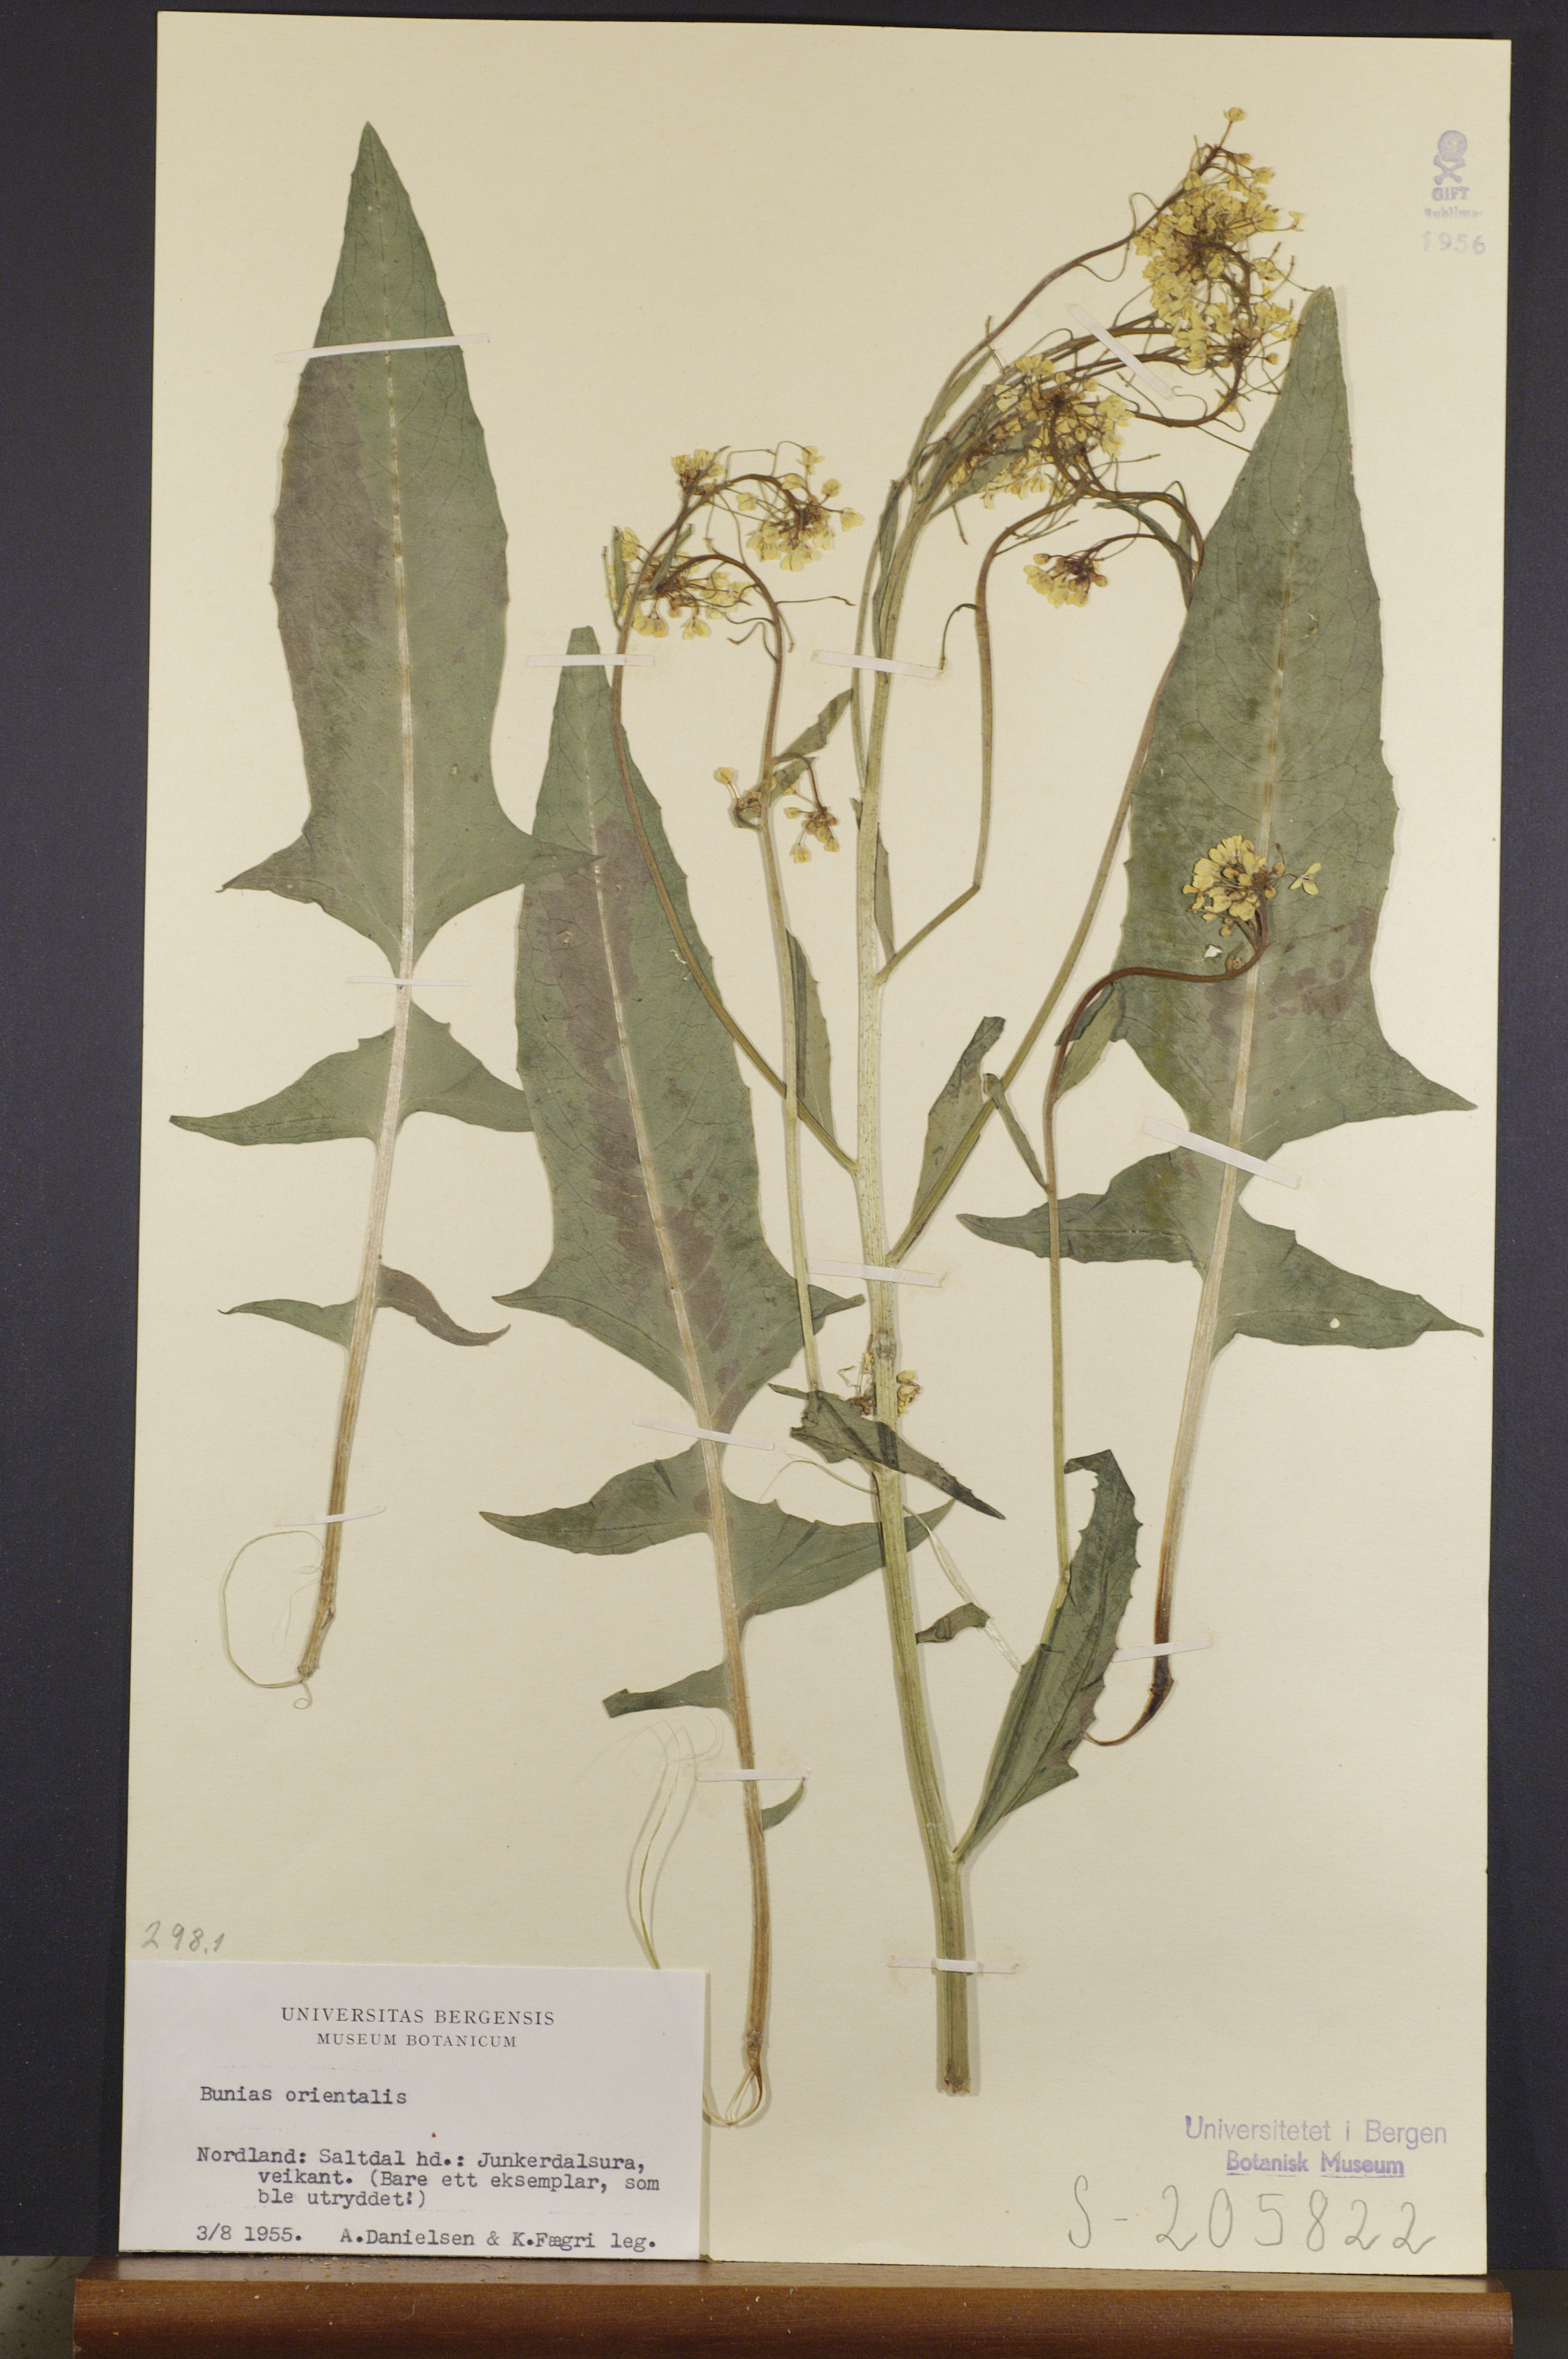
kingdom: Plantae
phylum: Tracheophyta
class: Magnoliopsida
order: Brassicales
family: Brassicaceae
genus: Bunias
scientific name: Bunias orientalis
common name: Warty-cabbage
